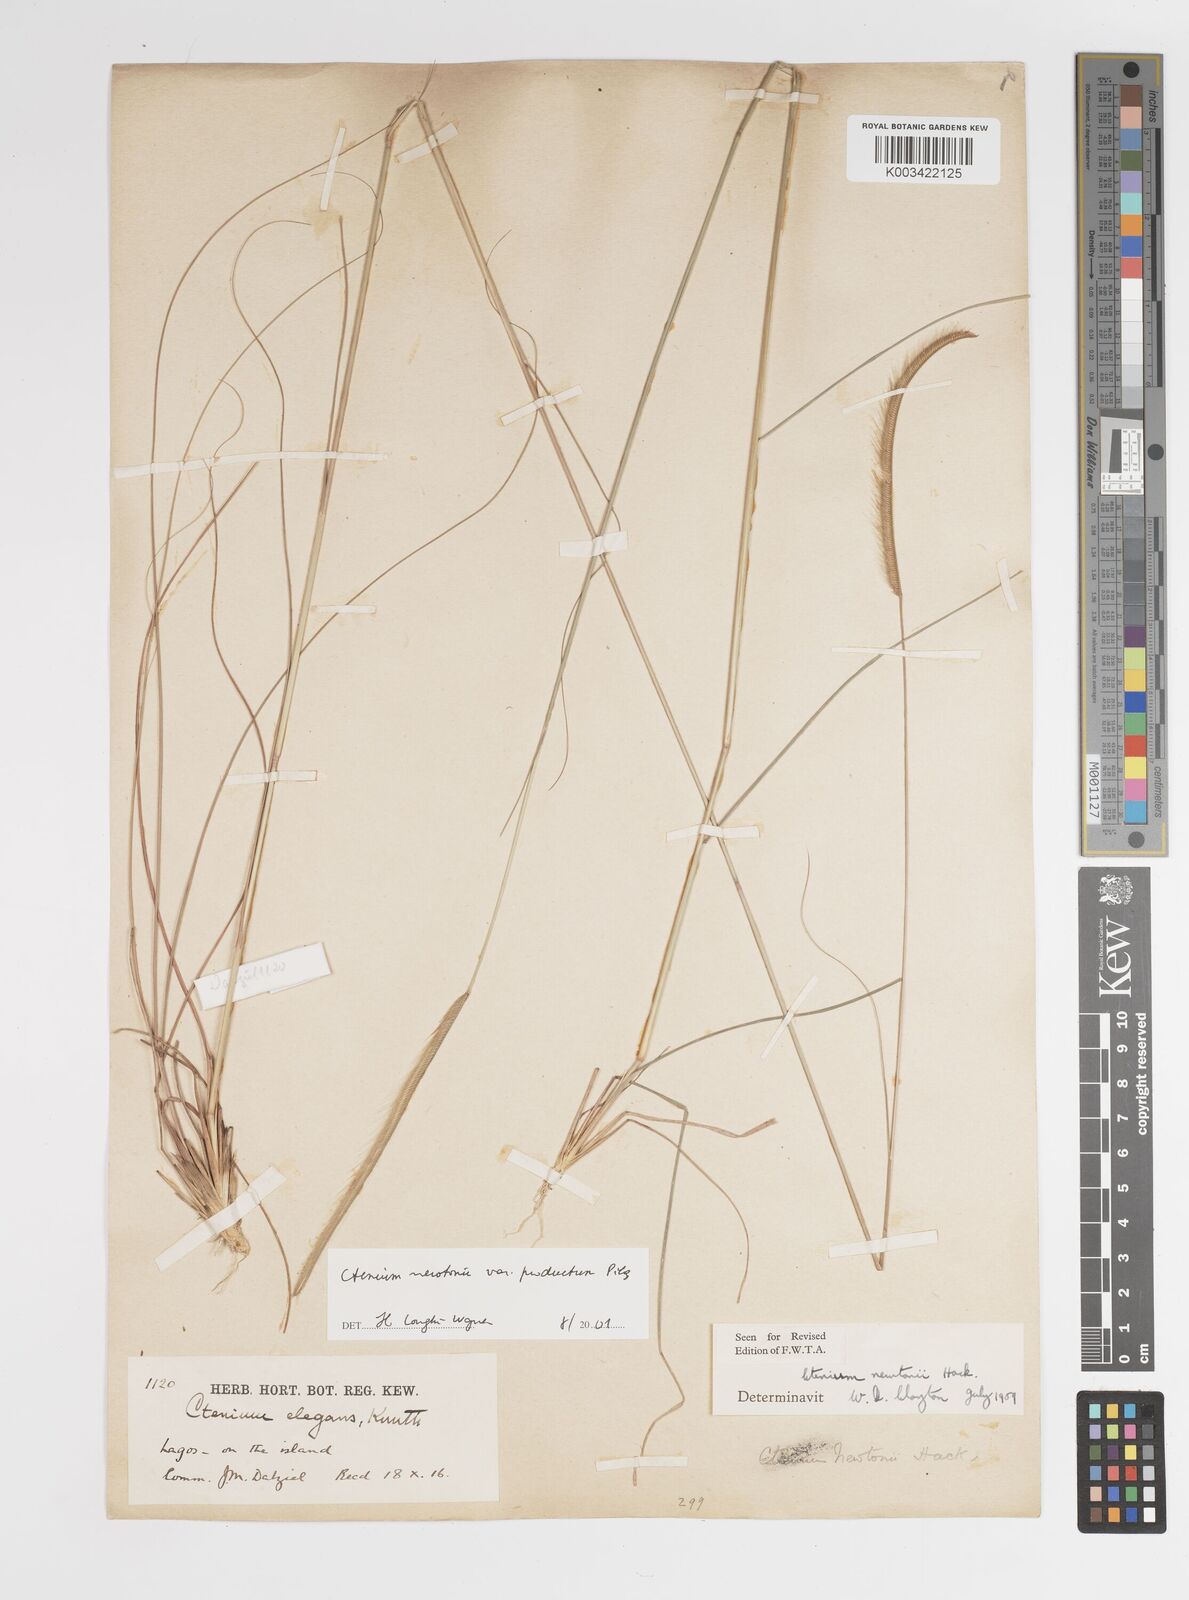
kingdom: Plantae
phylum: Tracheophyta
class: Liliopsida
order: Poales
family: Poaceae
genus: Ctenium
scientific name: Ctenium newtonii
